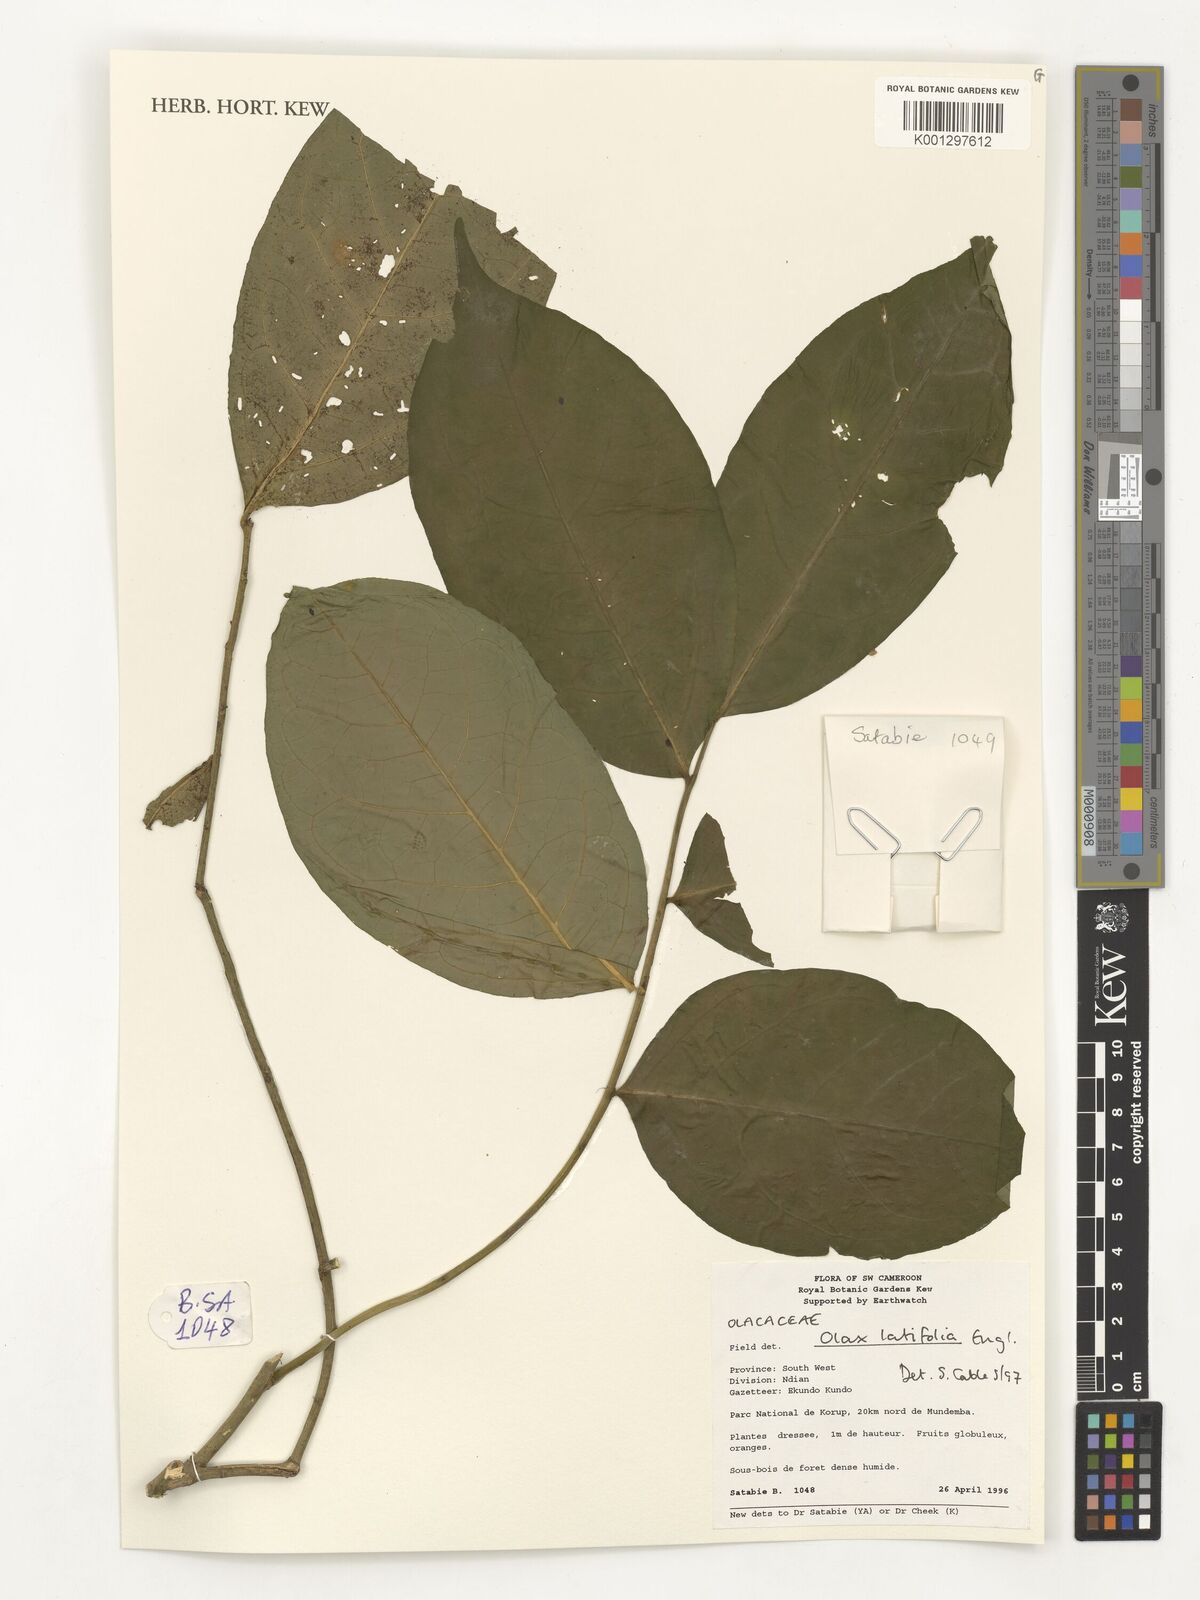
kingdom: Plantae
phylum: Tracheophyta
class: Magnoliopsida
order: Santalales
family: Olacaceae
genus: Olax
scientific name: Olax latifolia
